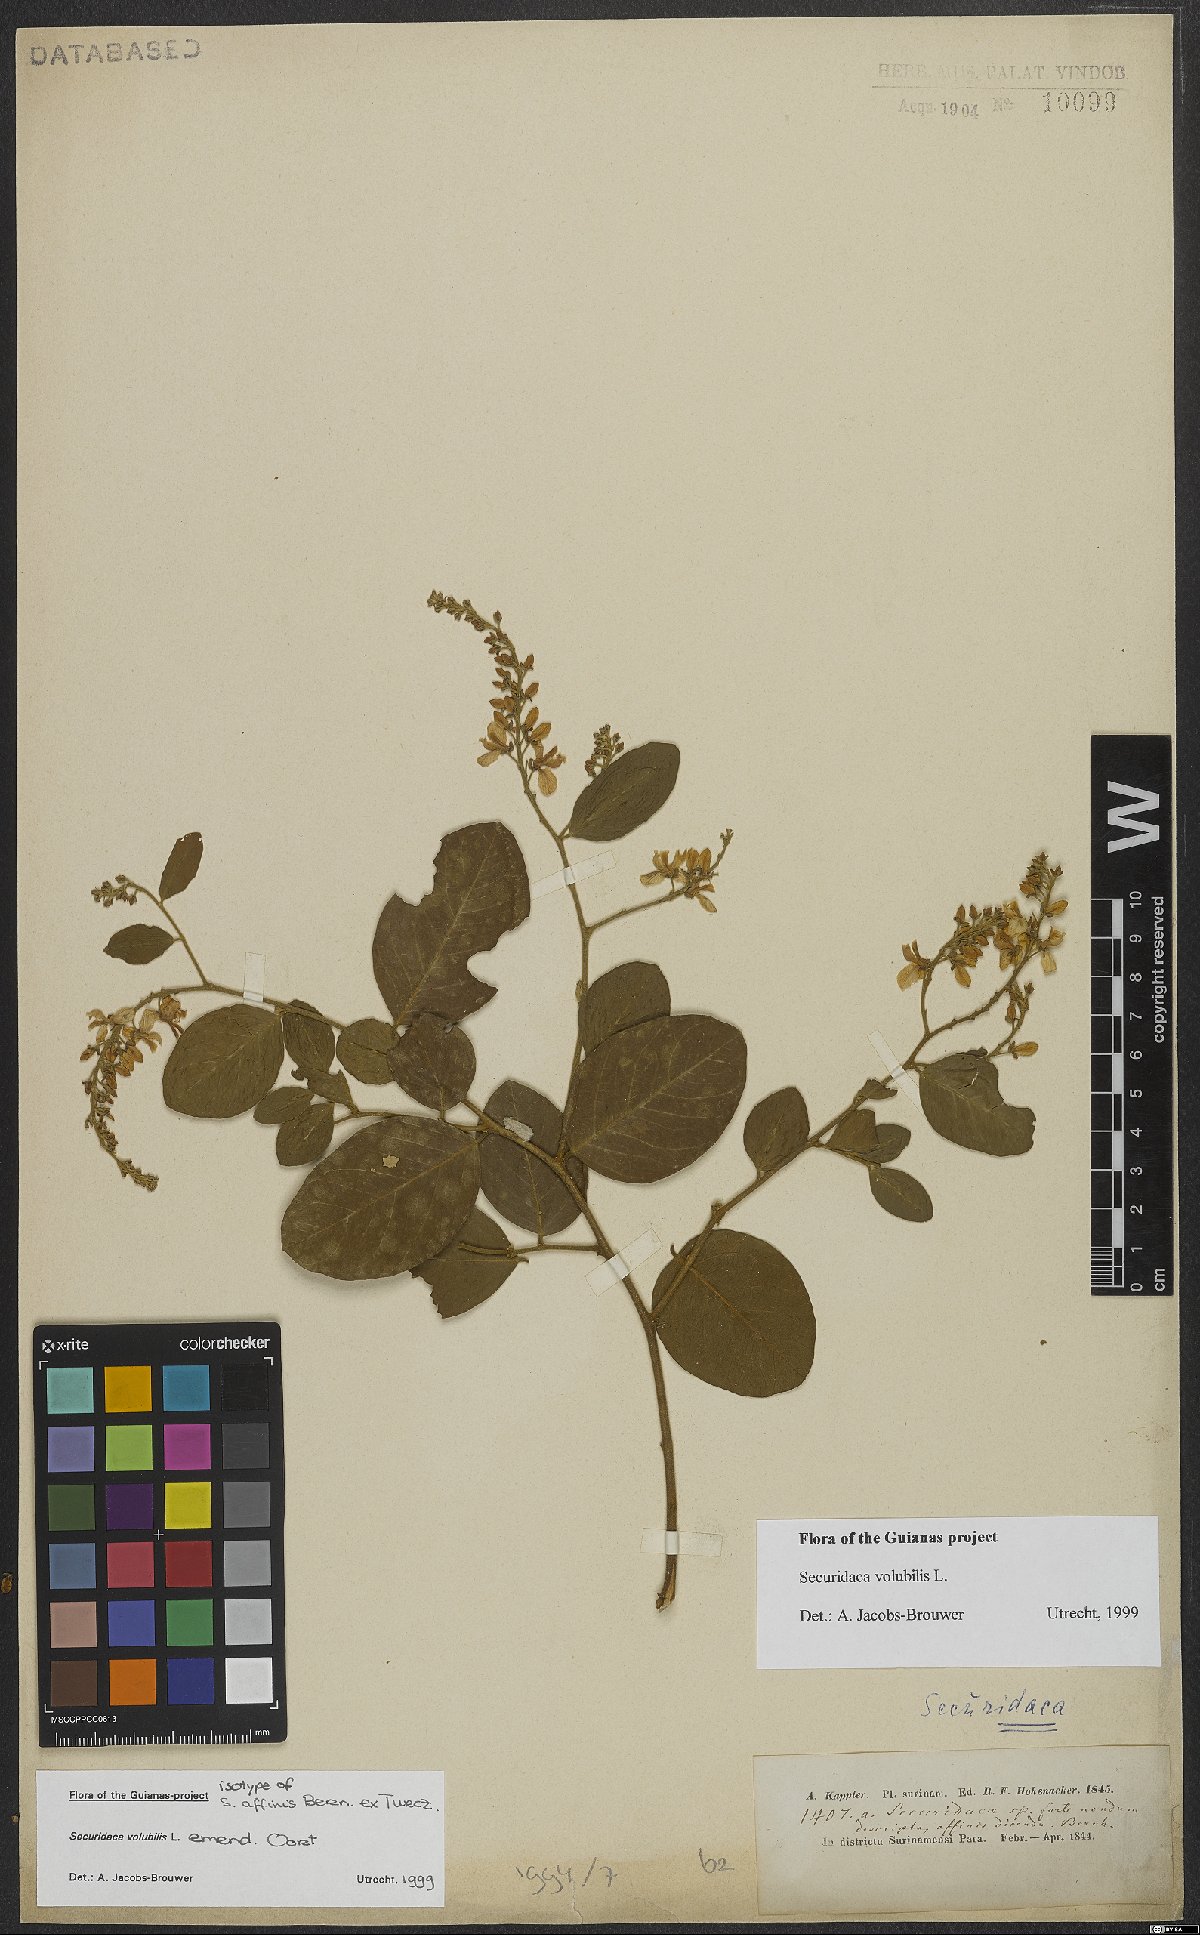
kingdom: Plantae
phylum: Tracheophyta
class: Magnoliopsida
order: Fabales
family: Polygalaceae
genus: Securidaca
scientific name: Securidaca
